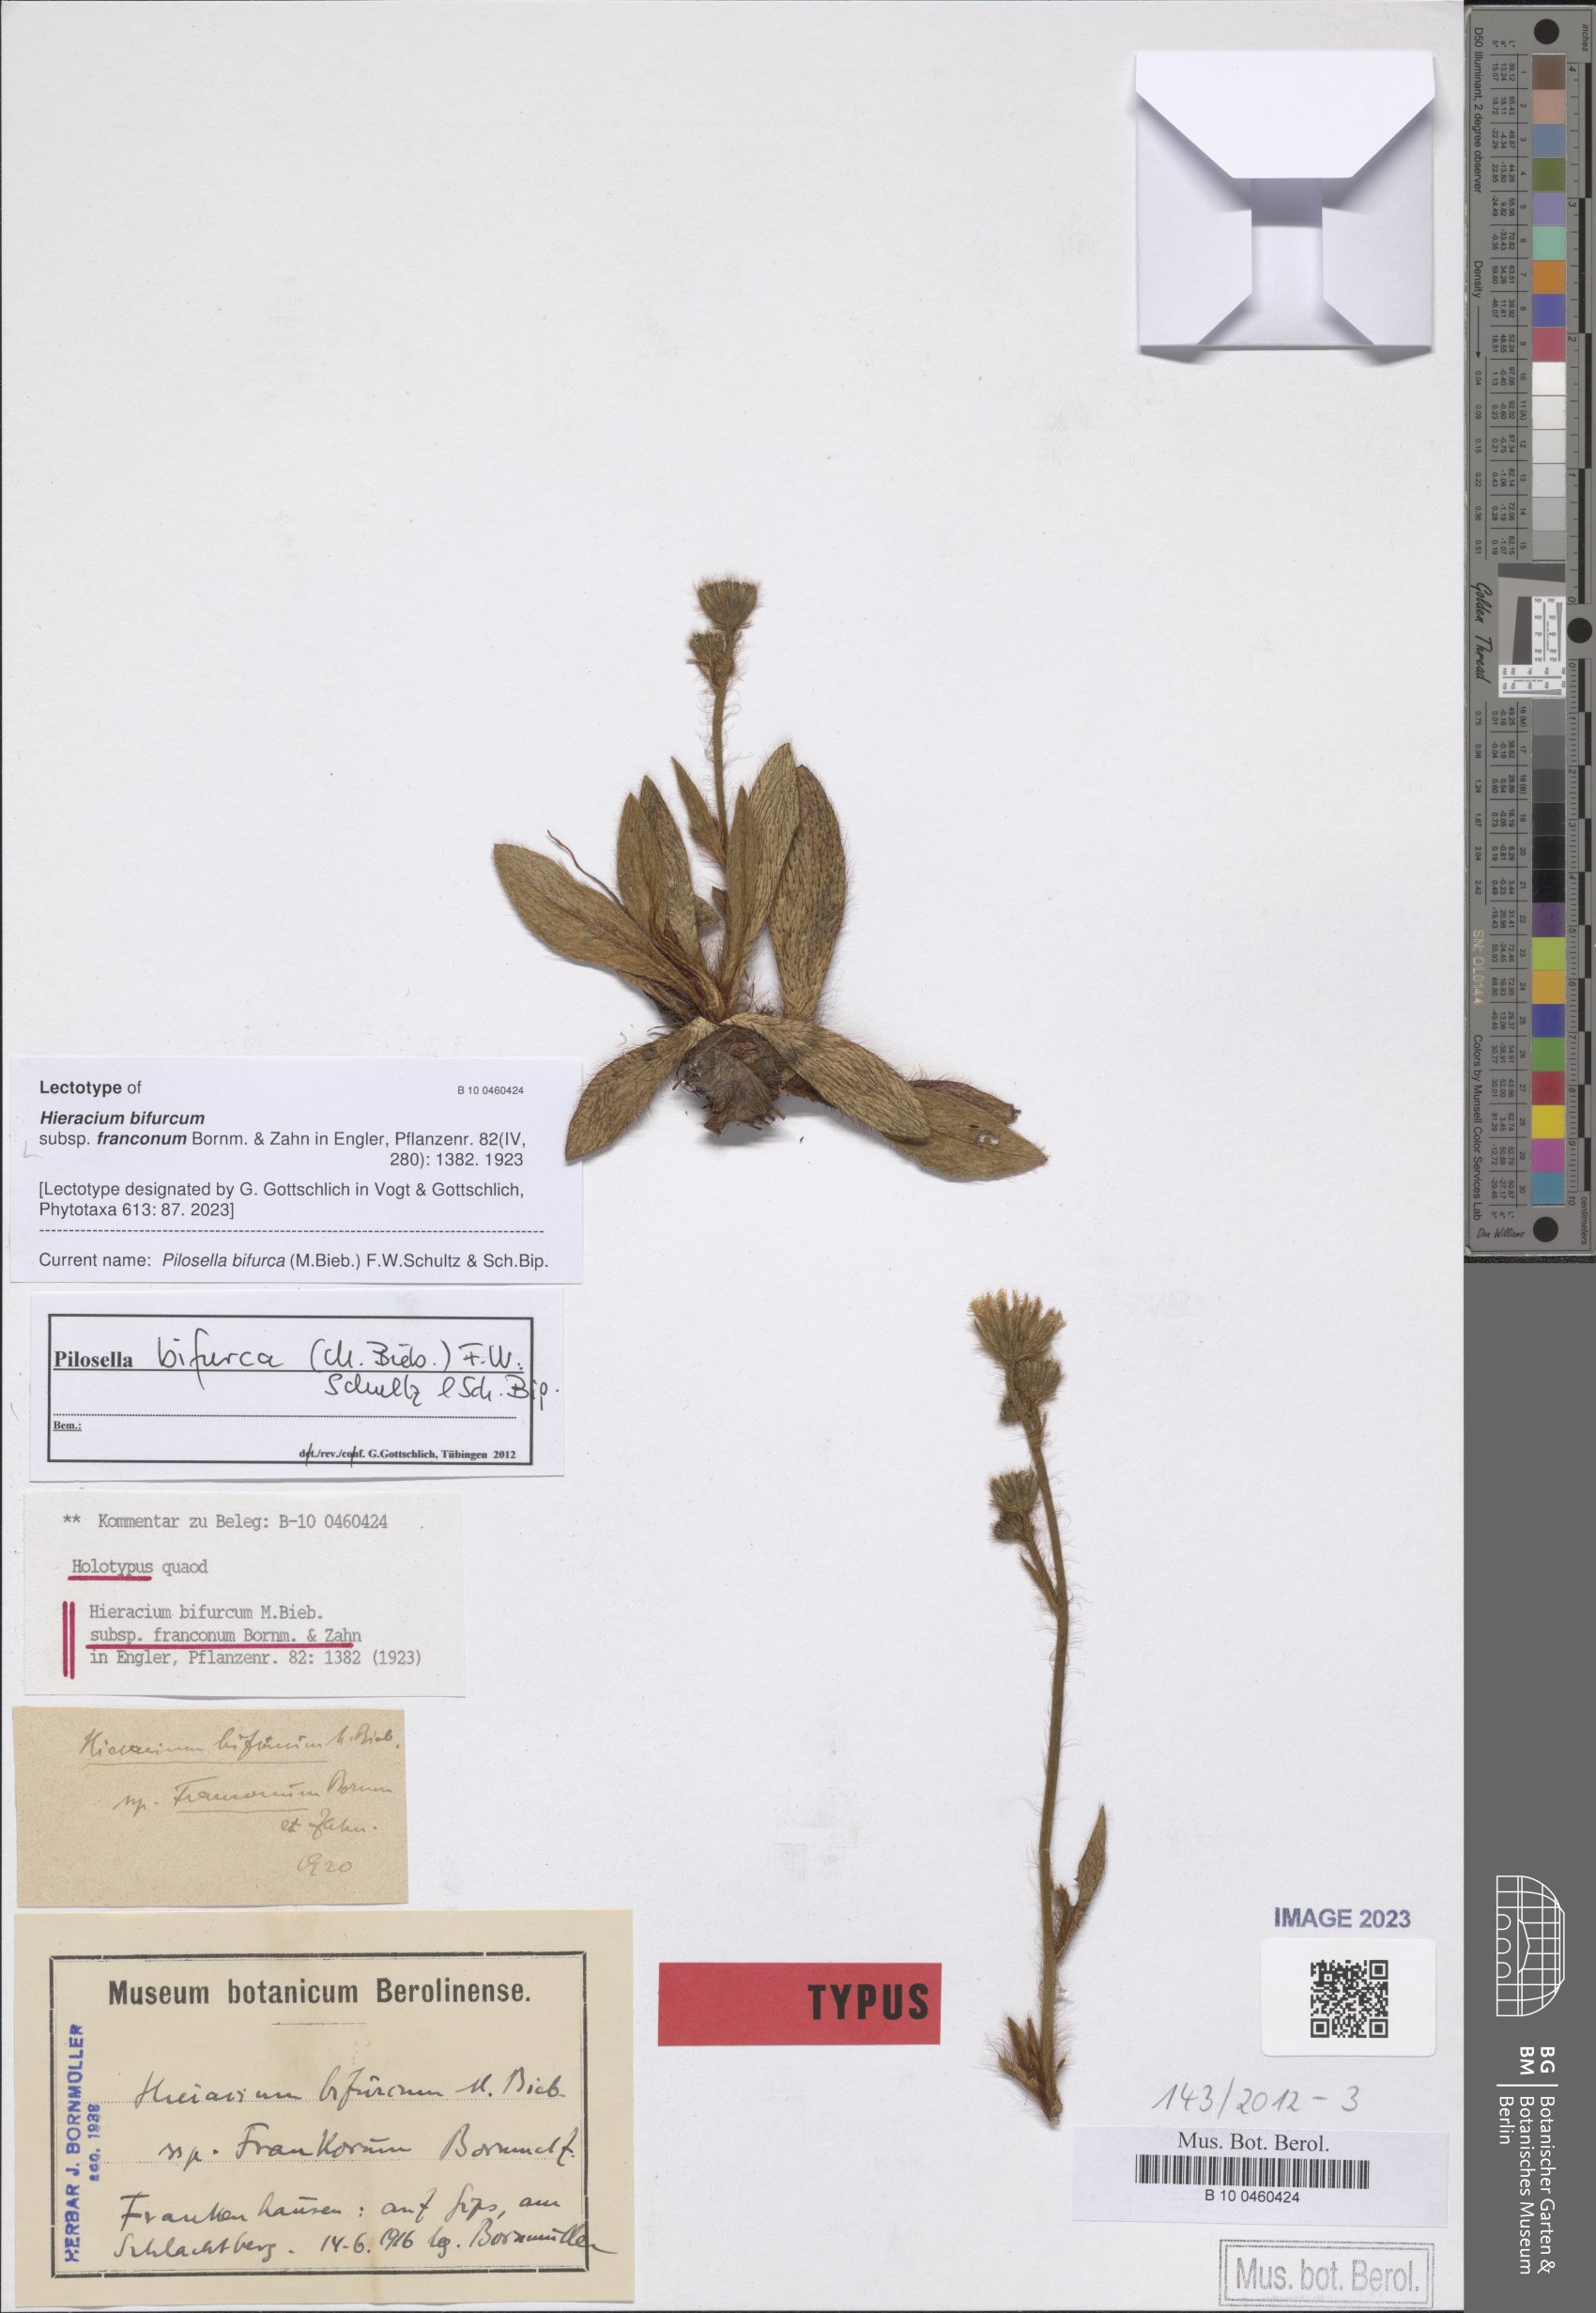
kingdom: Plantae
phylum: Tracheophyta
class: Magnoliopsida
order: Asterales
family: Asteraceae
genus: Pilosella
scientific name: Pilosella bifurca
